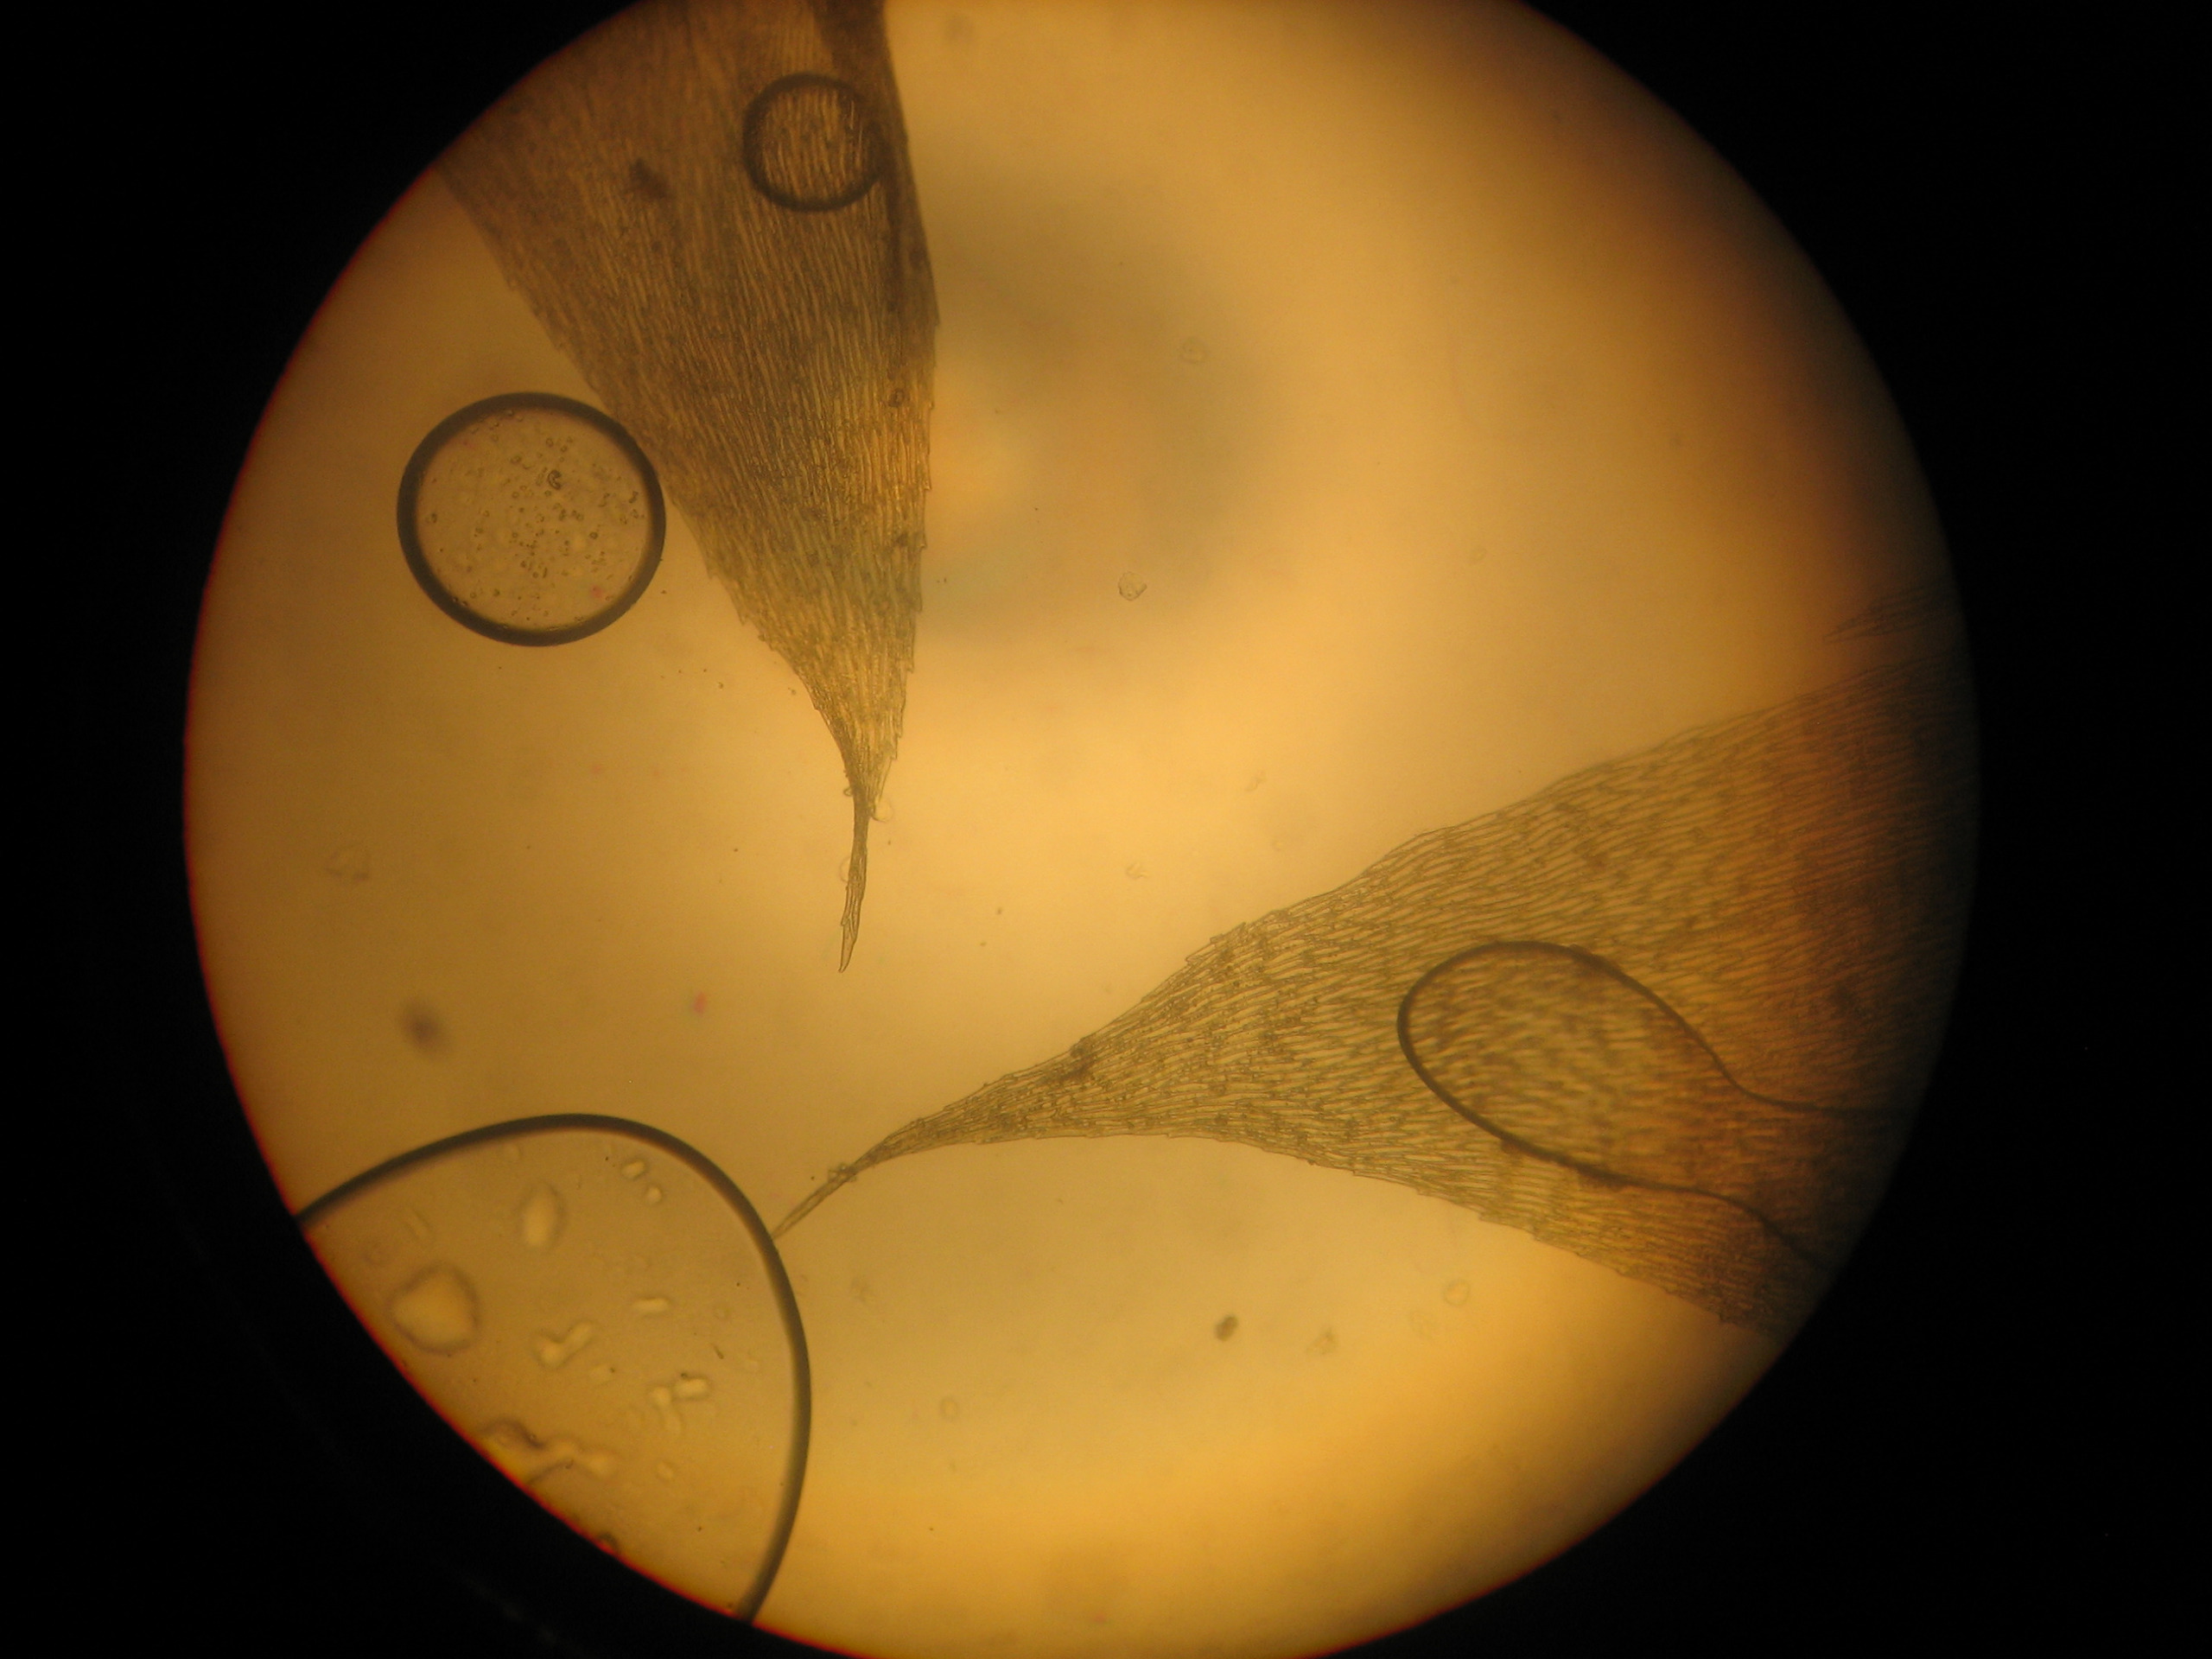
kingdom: Plantae
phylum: Bryophyta
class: Bryopsida
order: Hypnales
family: Brachytheciaceae
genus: Brachythecium
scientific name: Brachythecium rutabulum
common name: Almindelig kortkapsel
